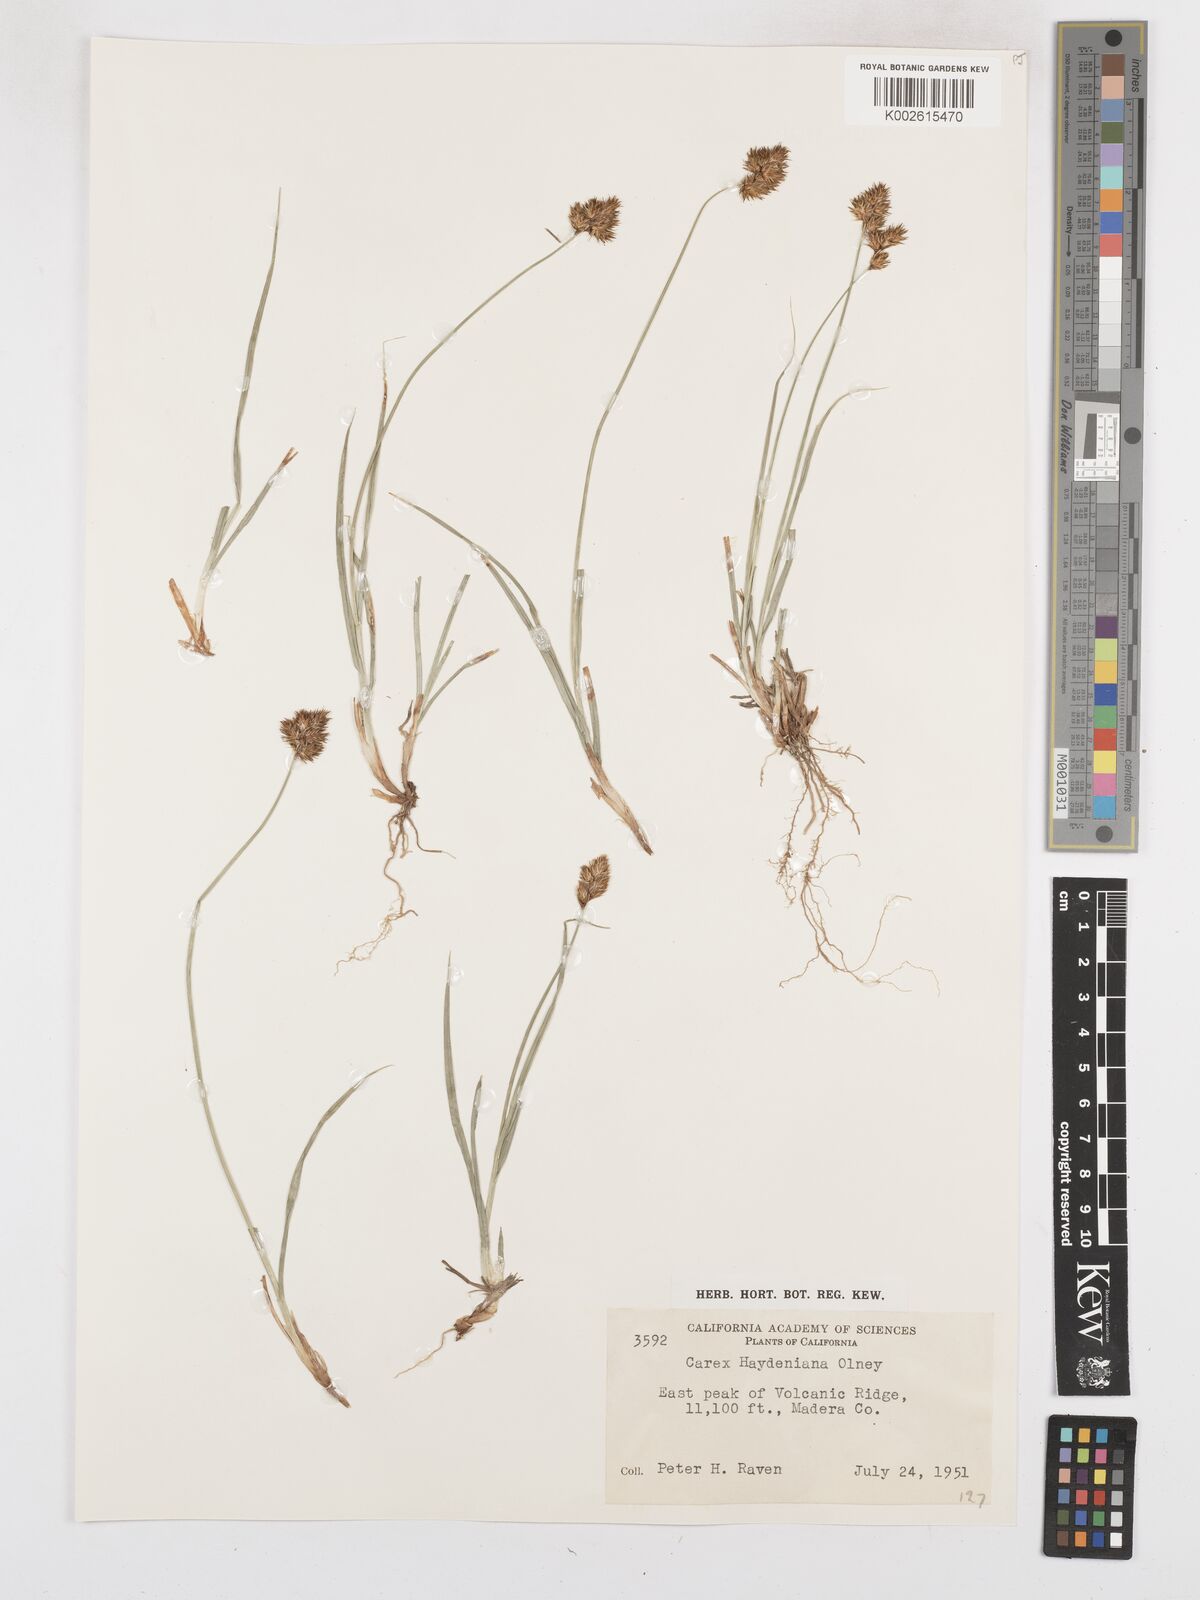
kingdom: Plantae
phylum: Tracheophyta
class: Liliopsida
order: Poales
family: Cyperaceae
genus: Carex
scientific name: Carex haydeniana
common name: Cloud sedge
